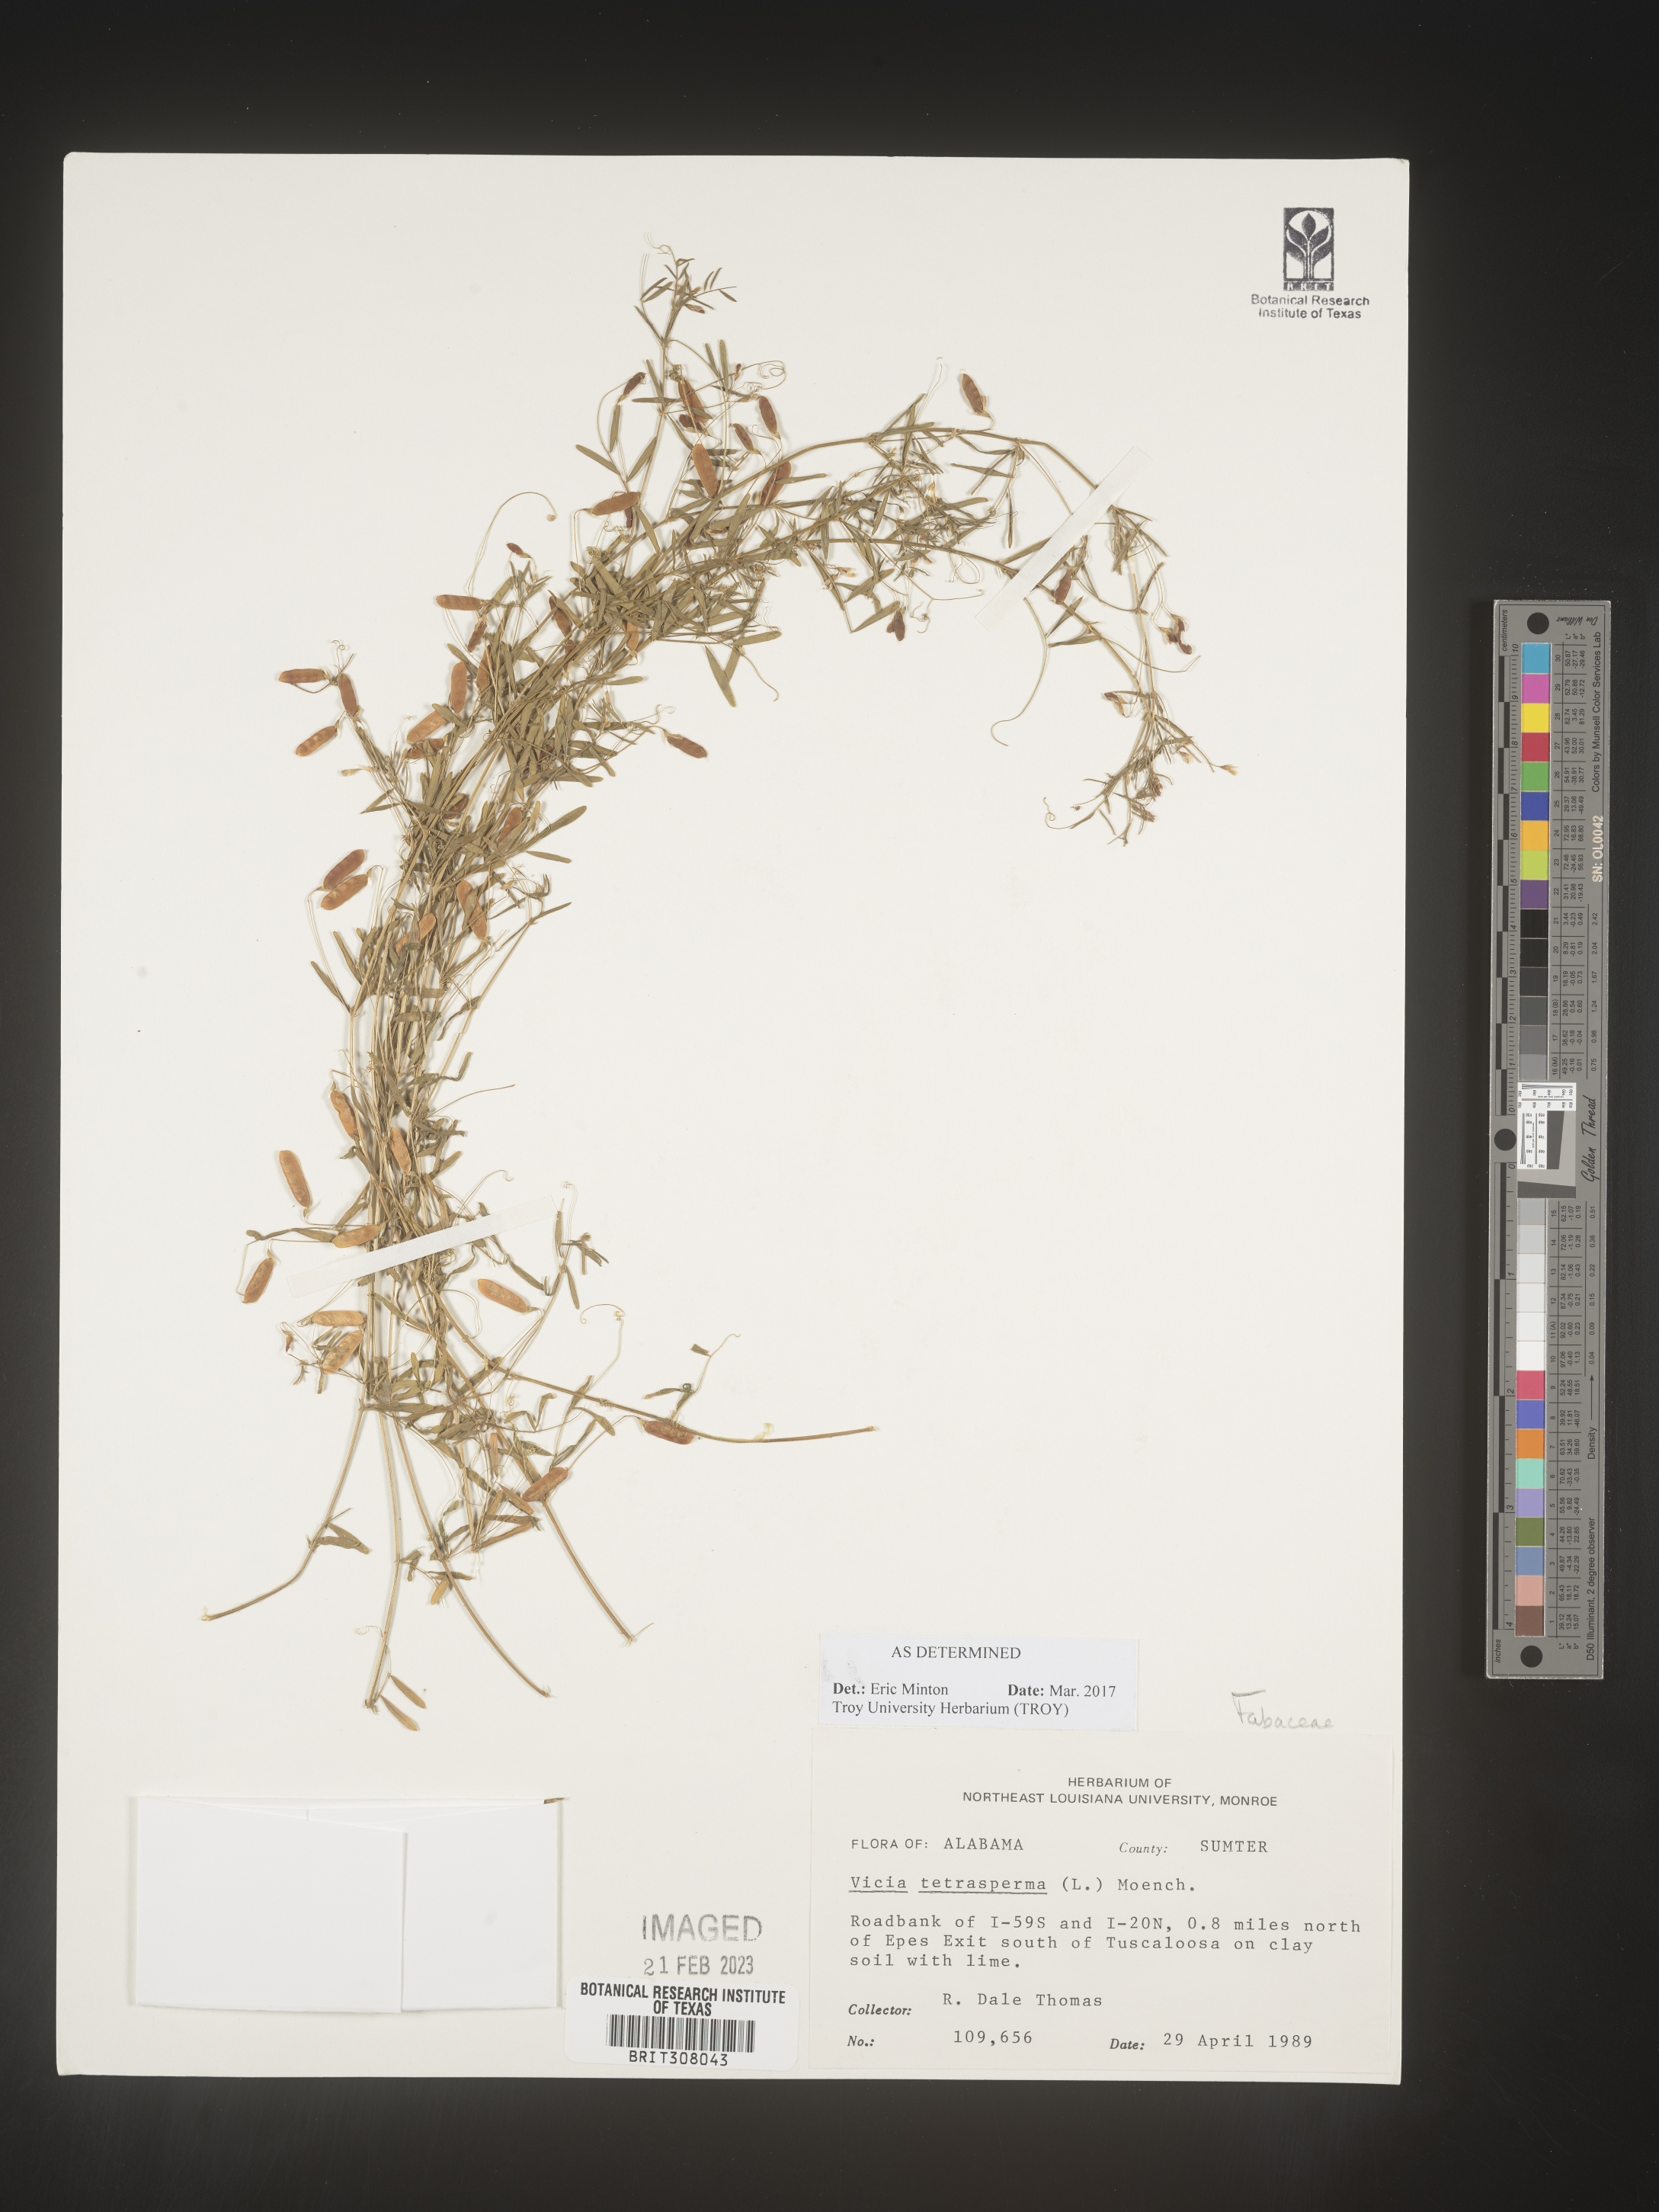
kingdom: Plantae
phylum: Tracheophyta
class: Magnoliopsida
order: Fabales
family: Fabaceae
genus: Vicia
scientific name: Vicia tetrasperma
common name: Smooth tare
